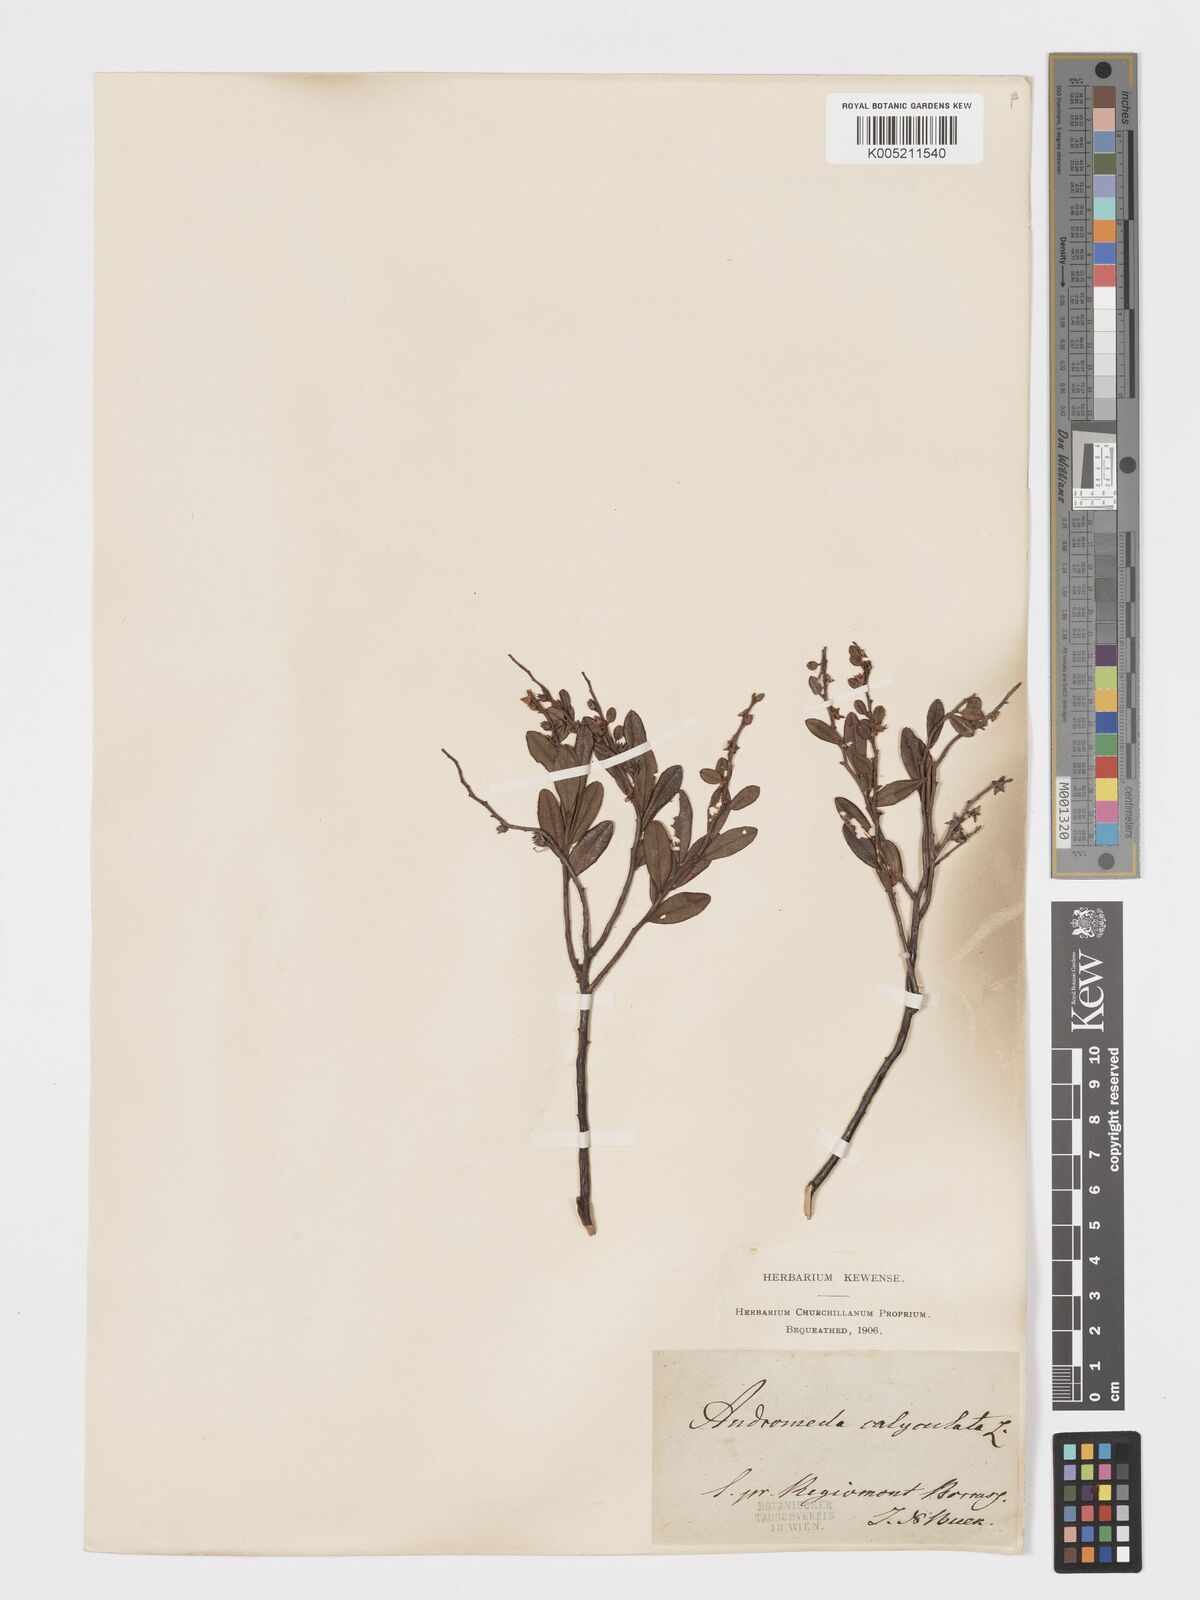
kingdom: Plantae
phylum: Tracheophyta
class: Magnoliopsida
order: Ericales
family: Ericaceae
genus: Chamaedaphne
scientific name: Chamaedaphne calyculata
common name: Leatherleaf
